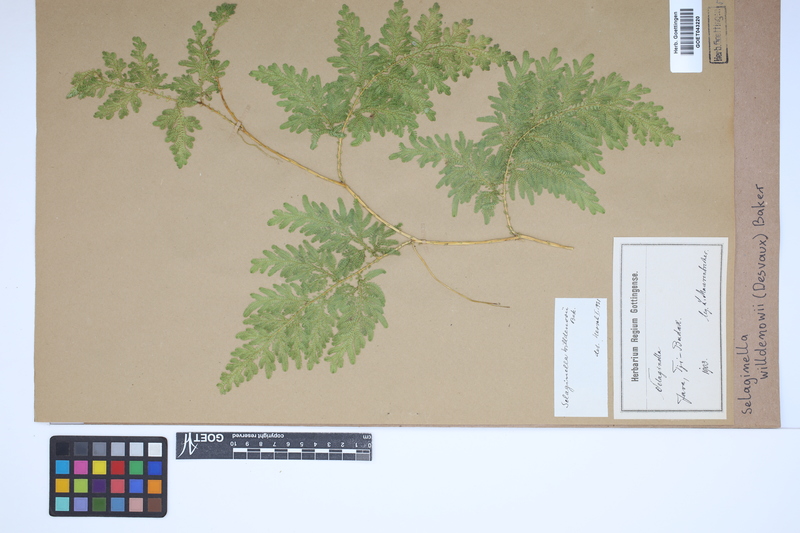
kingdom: Plantae
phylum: Tracheophyta
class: Lycopodiopsida
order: Selaginellales
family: Selaginellaceae
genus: Selaginella
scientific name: Selaginella willdenowii
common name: Willdenow's spikemoss
